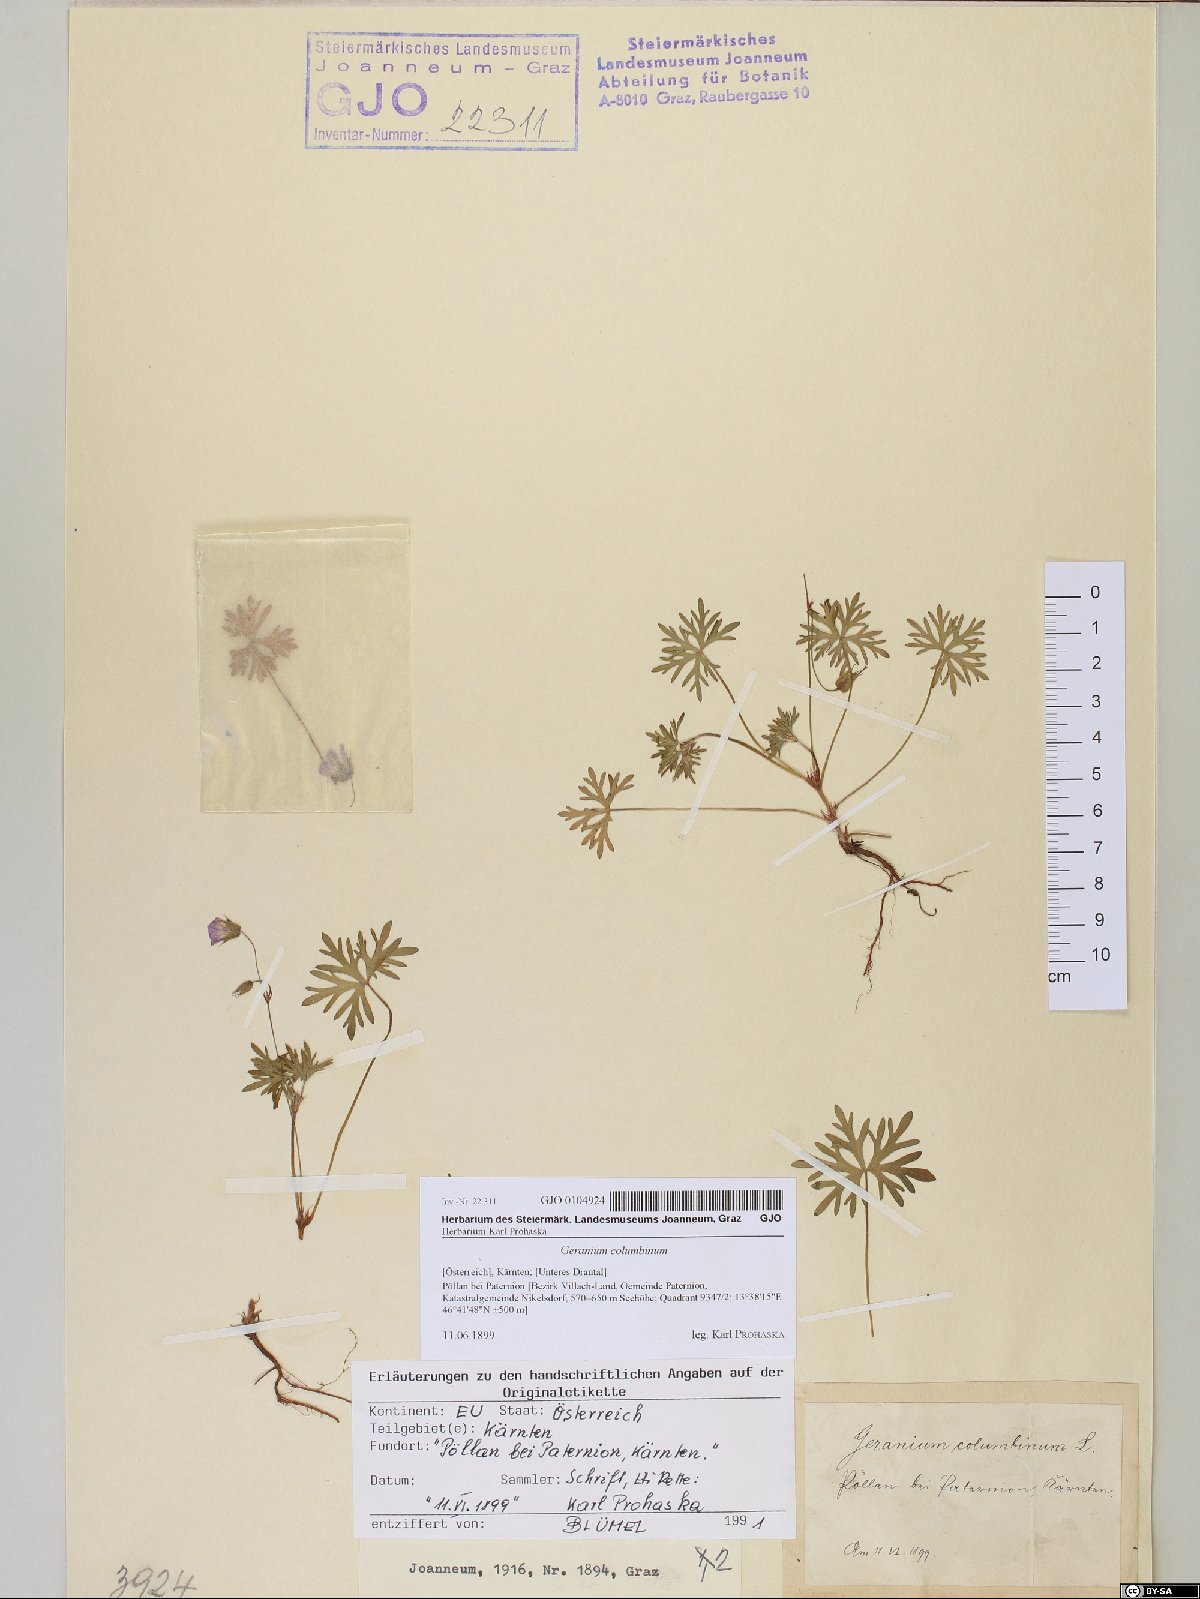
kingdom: Plantae
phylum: Tracheophyta
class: Magnoliopsida
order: Geraniales
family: Geraniaceae
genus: Geranium
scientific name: Geranium columbinum
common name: Long-stalked crane's-bill
